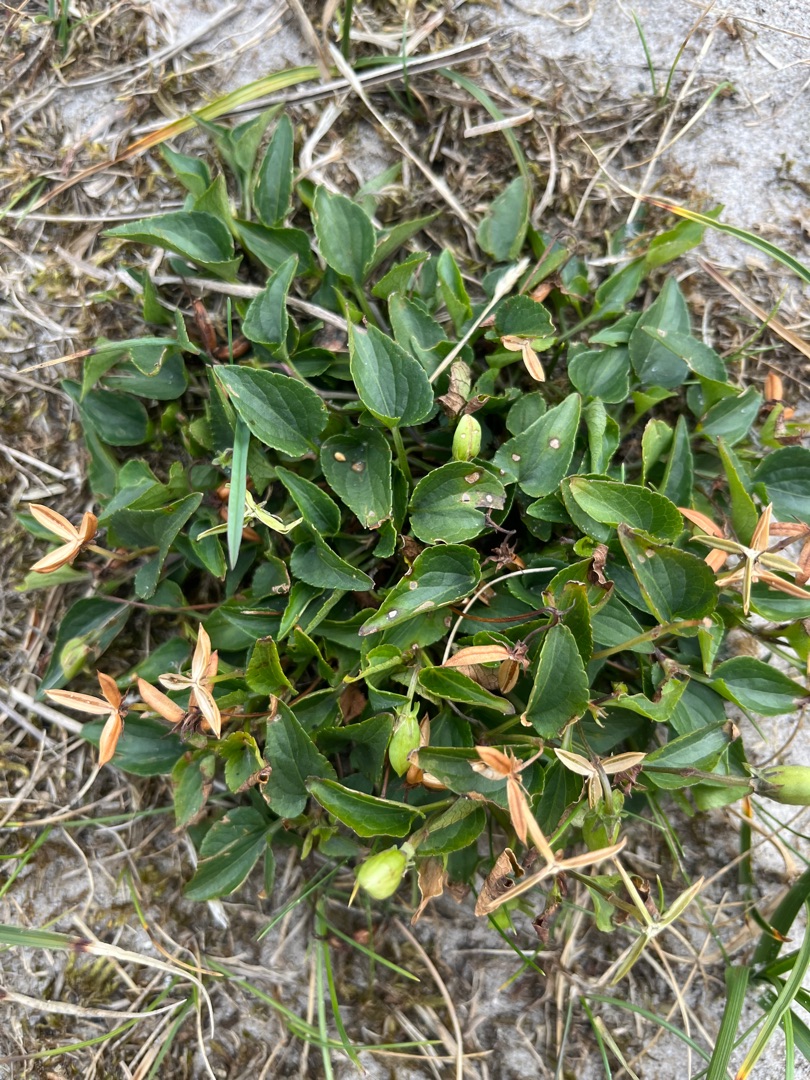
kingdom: Plantae
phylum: Tracheophyta
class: Magnoliopsida
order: Malpighiales
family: Violaceae
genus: Viola
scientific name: Viola canina
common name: Hunde-viol
